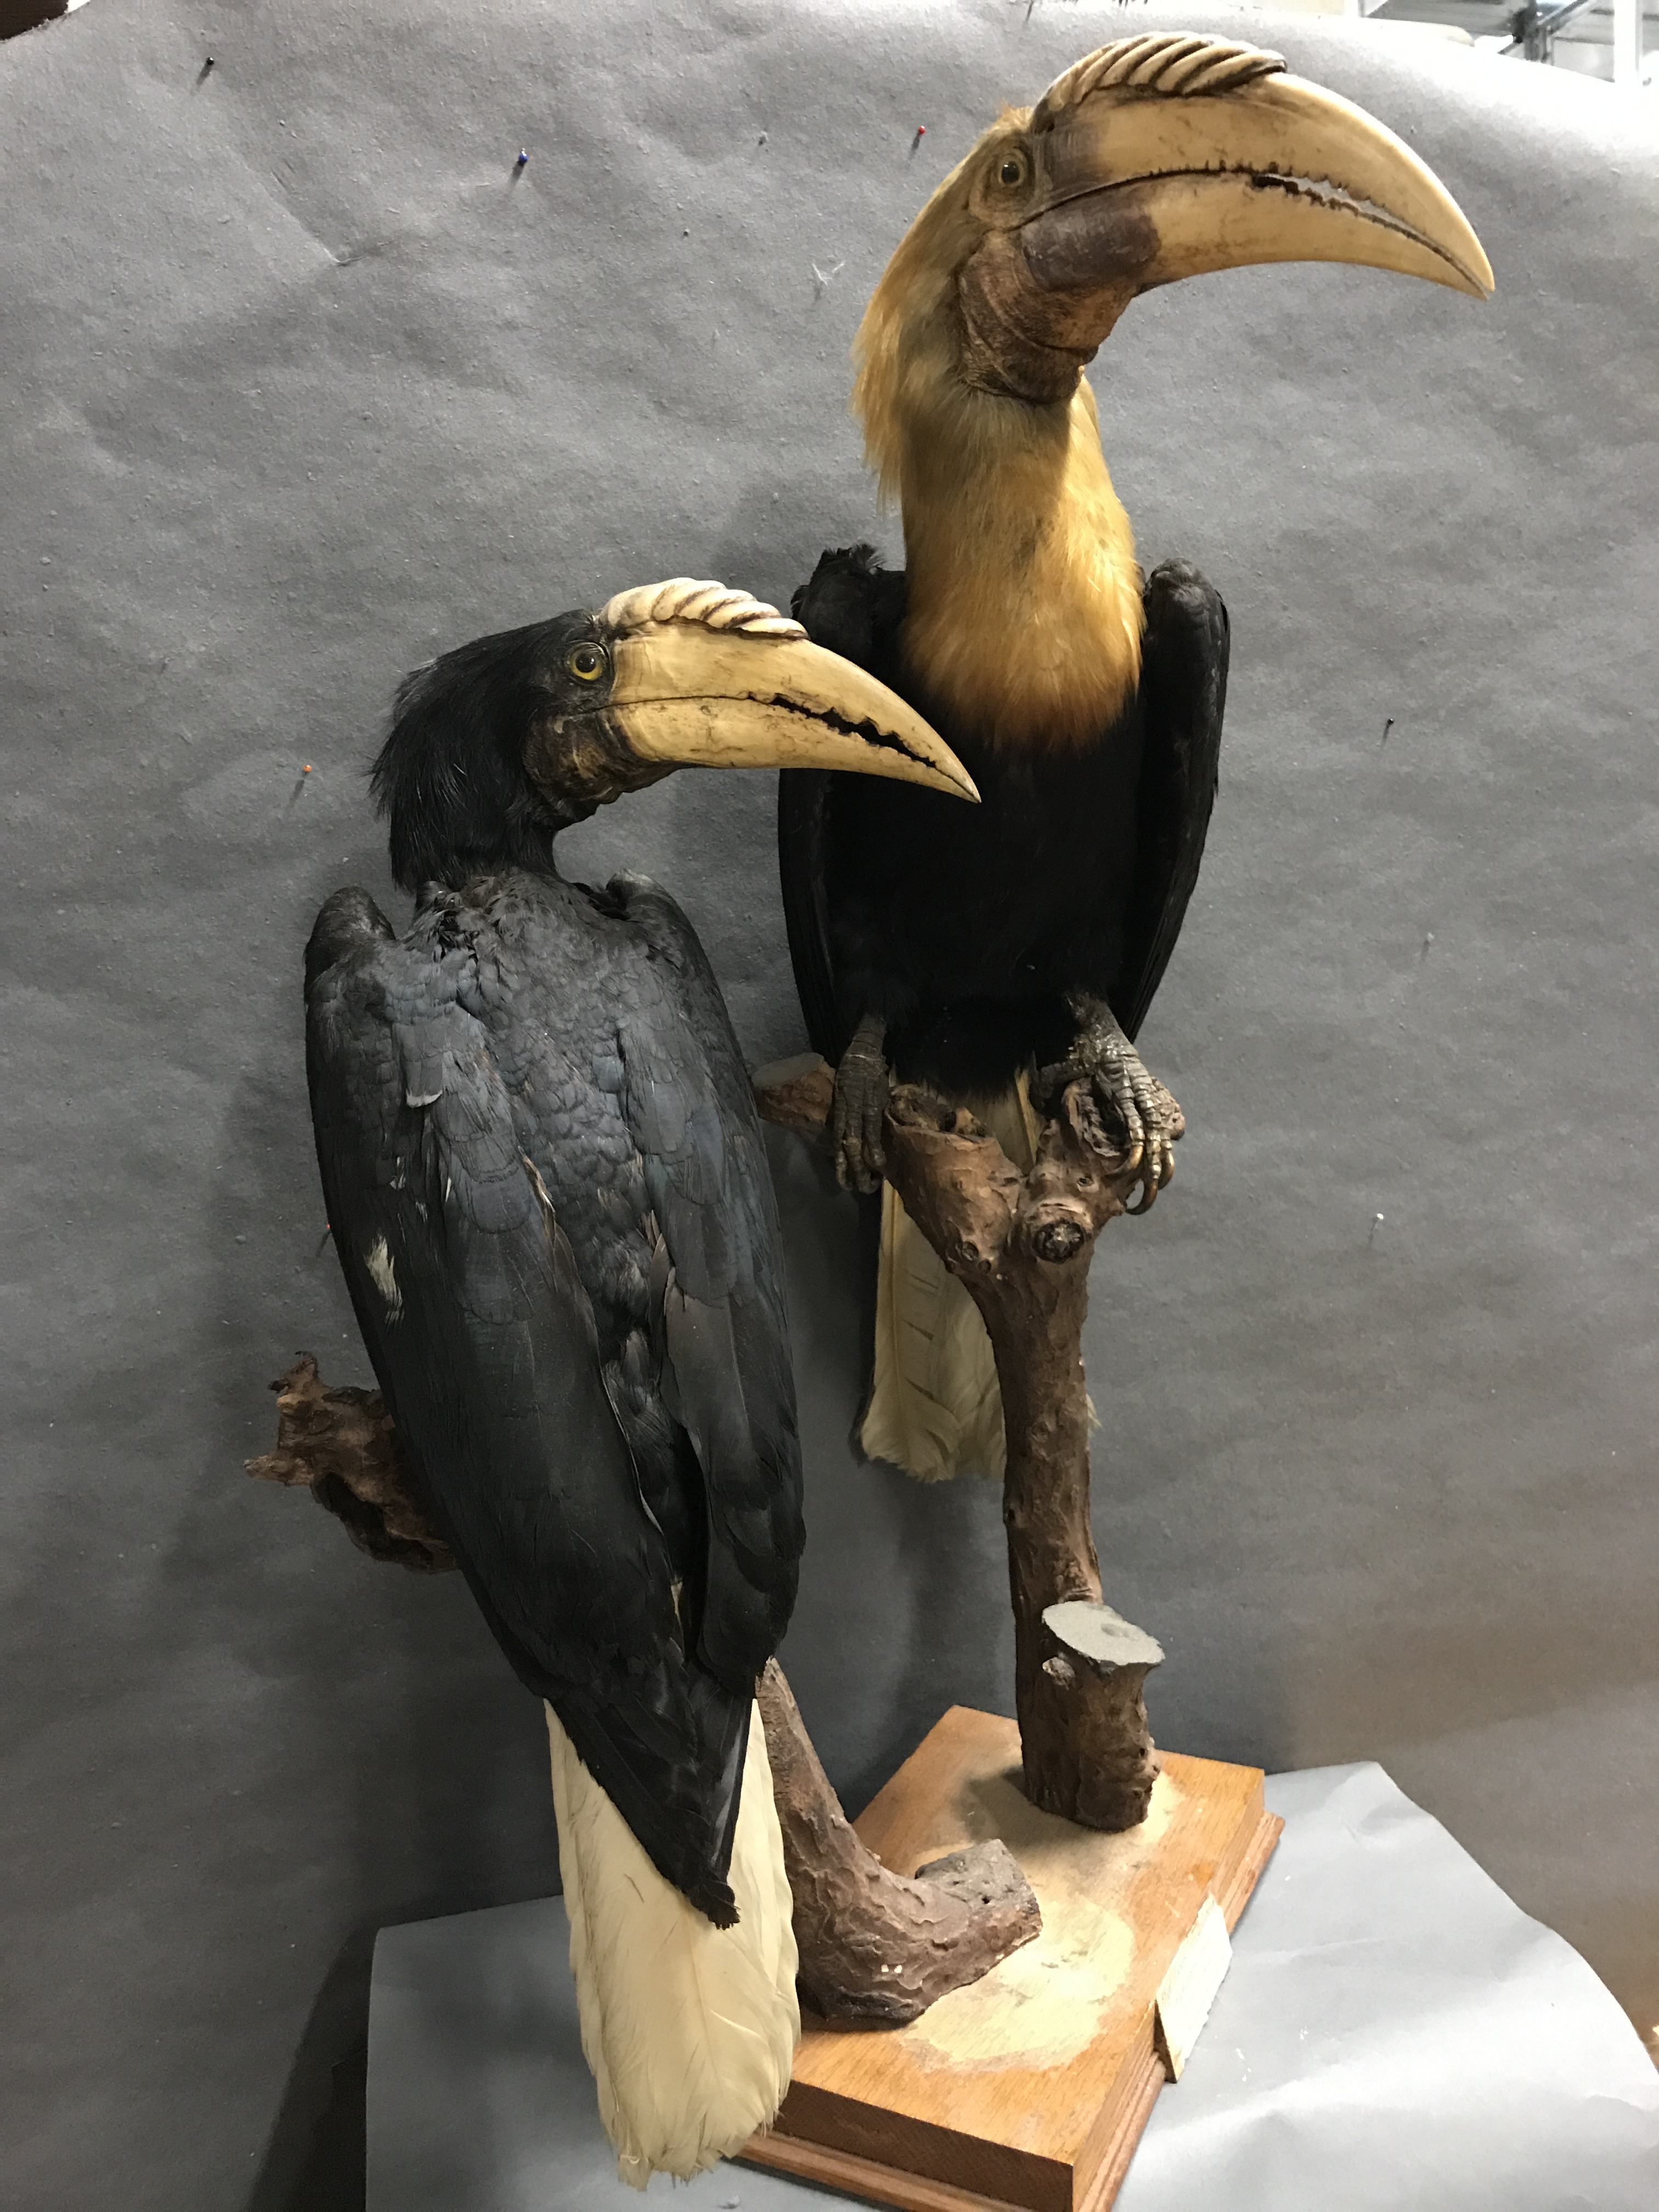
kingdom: Animalia
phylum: Chordata
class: Aves
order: Bucerotiformes
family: Bucerotidae
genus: Rhyticeros
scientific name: Rhyticeros plicatus
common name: Blyth's hornbill
